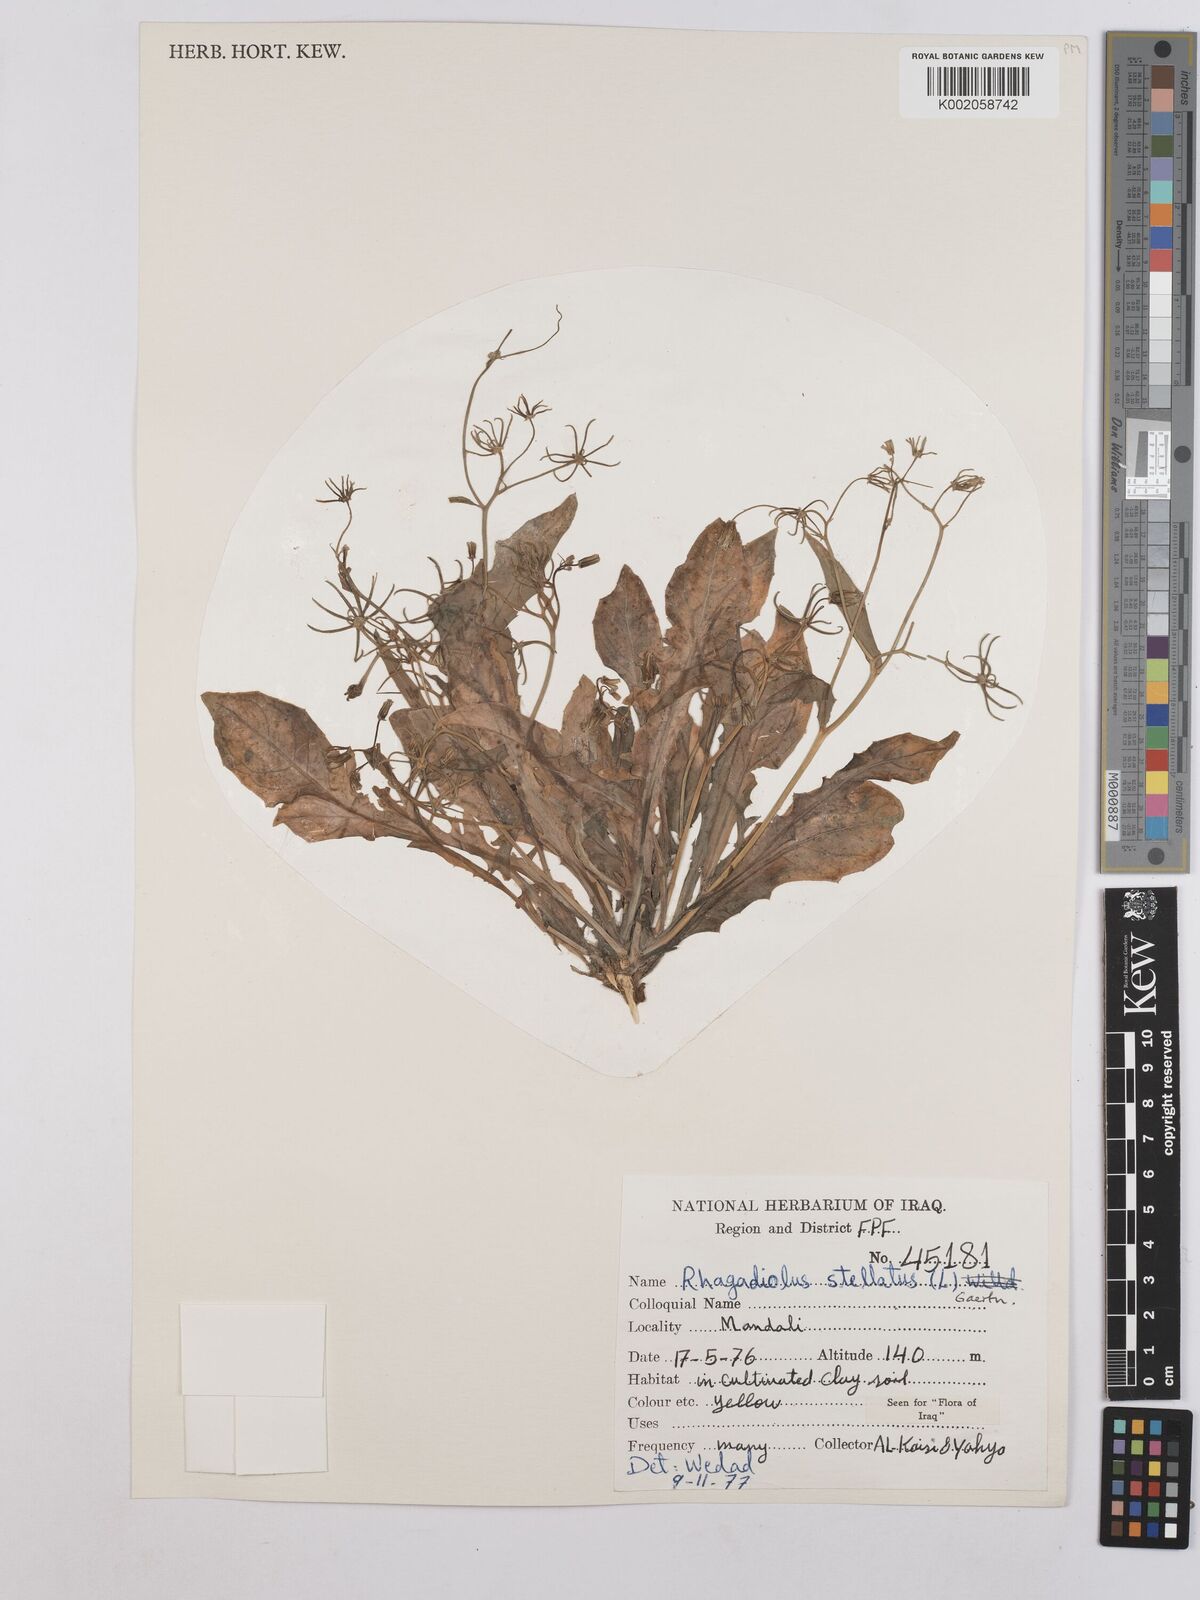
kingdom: Plantae
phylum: Tracheophyta
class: Magnoliopsida
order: Asterales
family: Asteraceae
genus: Rhagadiolus
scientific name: Rhagadiolus stellatus
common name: Star hawkbit
